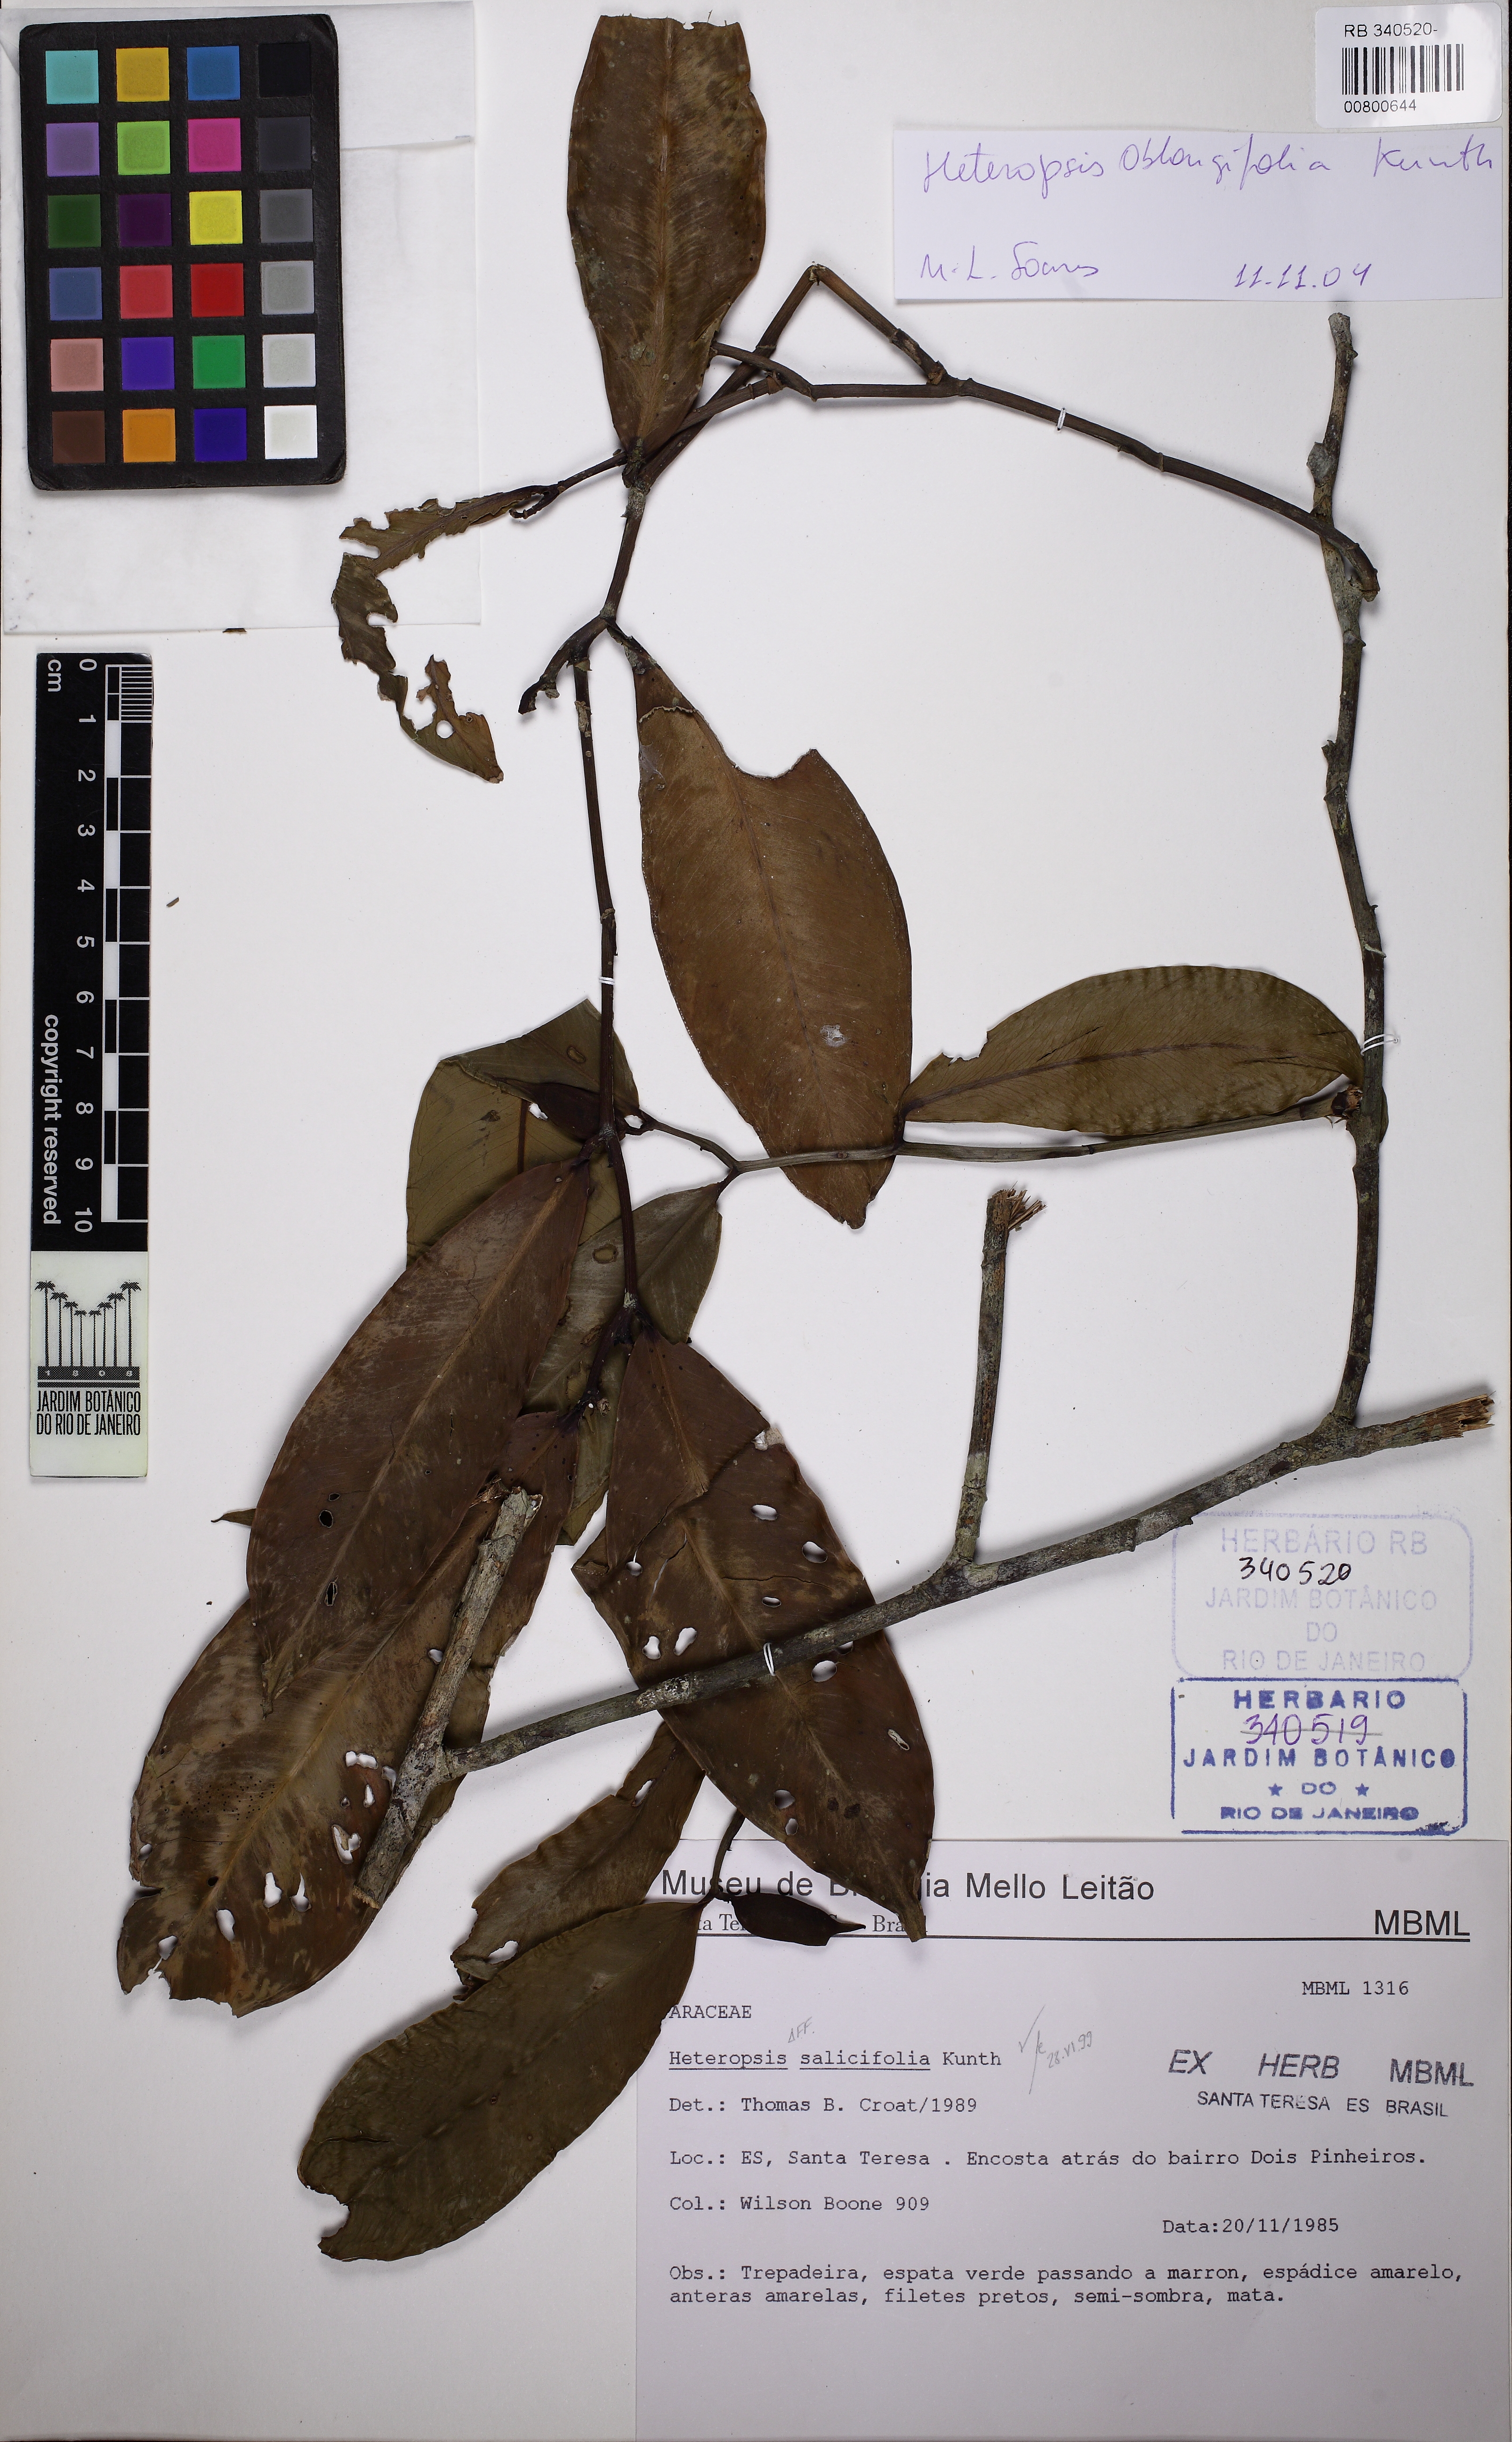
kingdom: Plantae
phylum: Tracheophyta
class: Liliopsida
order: Alismatales
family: Araceae
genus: Heteropsis
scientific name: Heteropsis salicifolia
